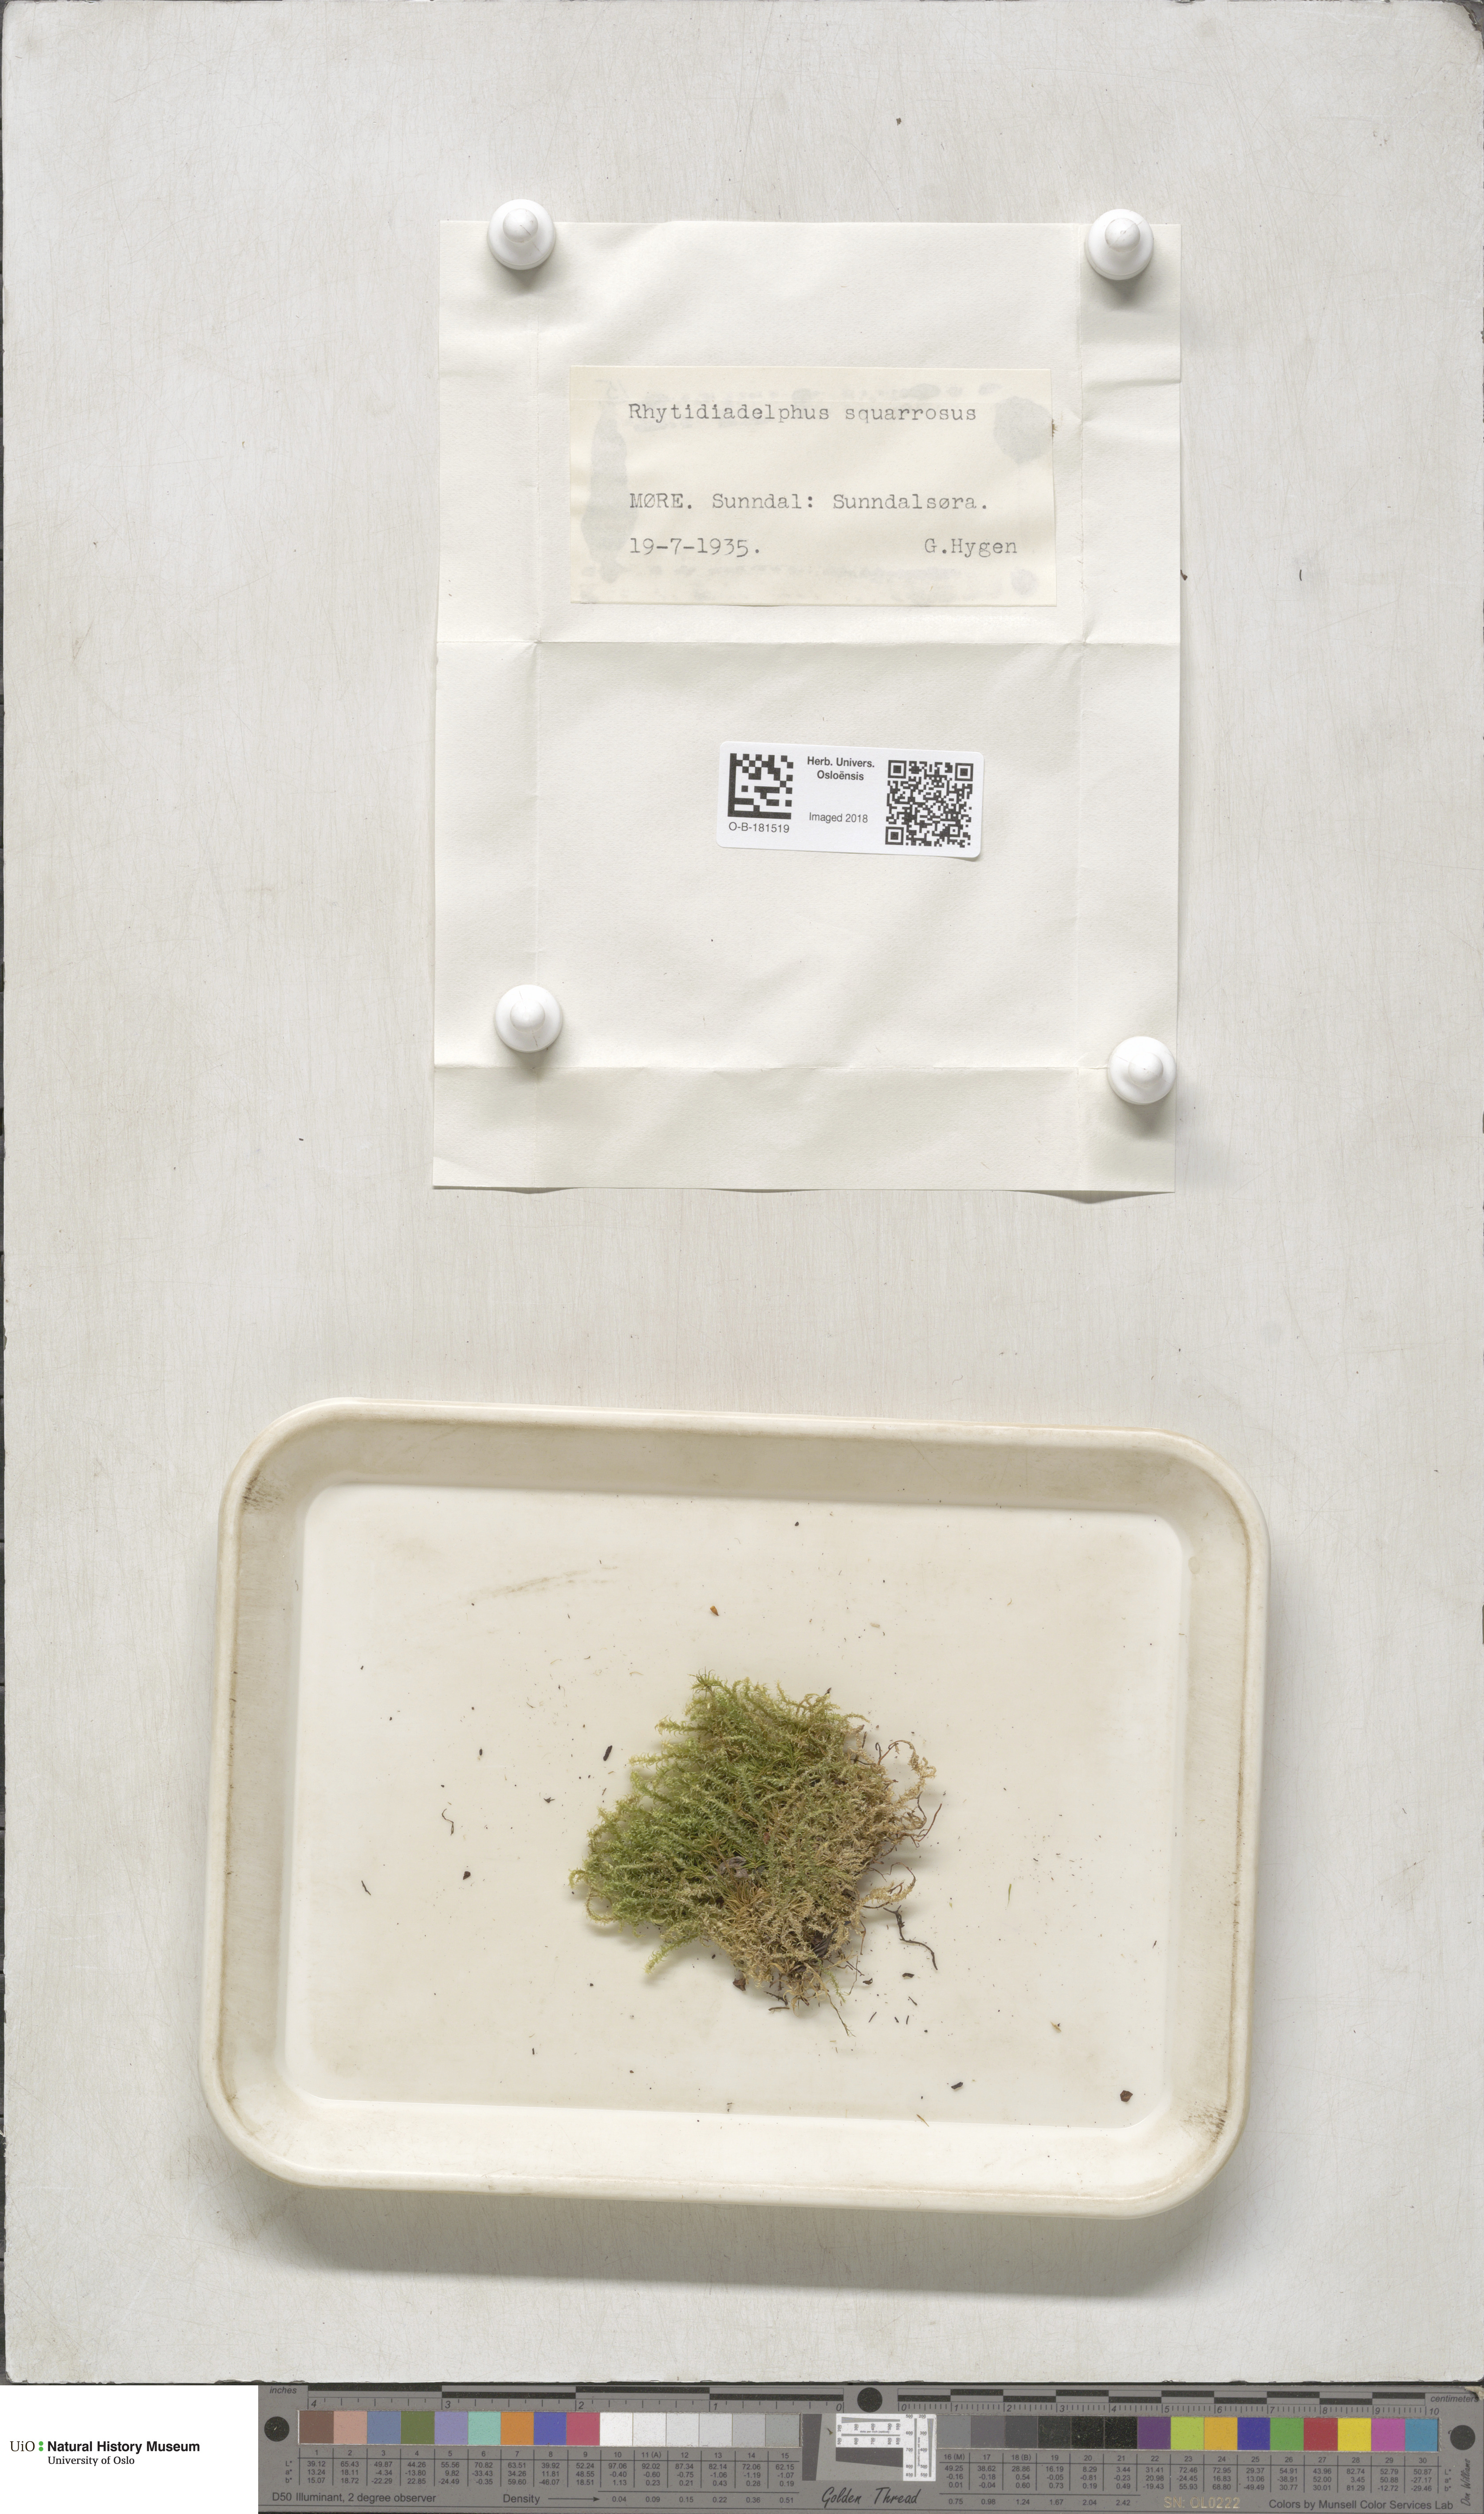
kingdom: Plantae
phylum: Bryophyta
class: Bryopsida
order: Hypnales
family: Hylocomiaceae
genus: Rhytidiadelphus
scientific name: Rhytidiadelphus squarrosus
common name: Springy turf-moss
